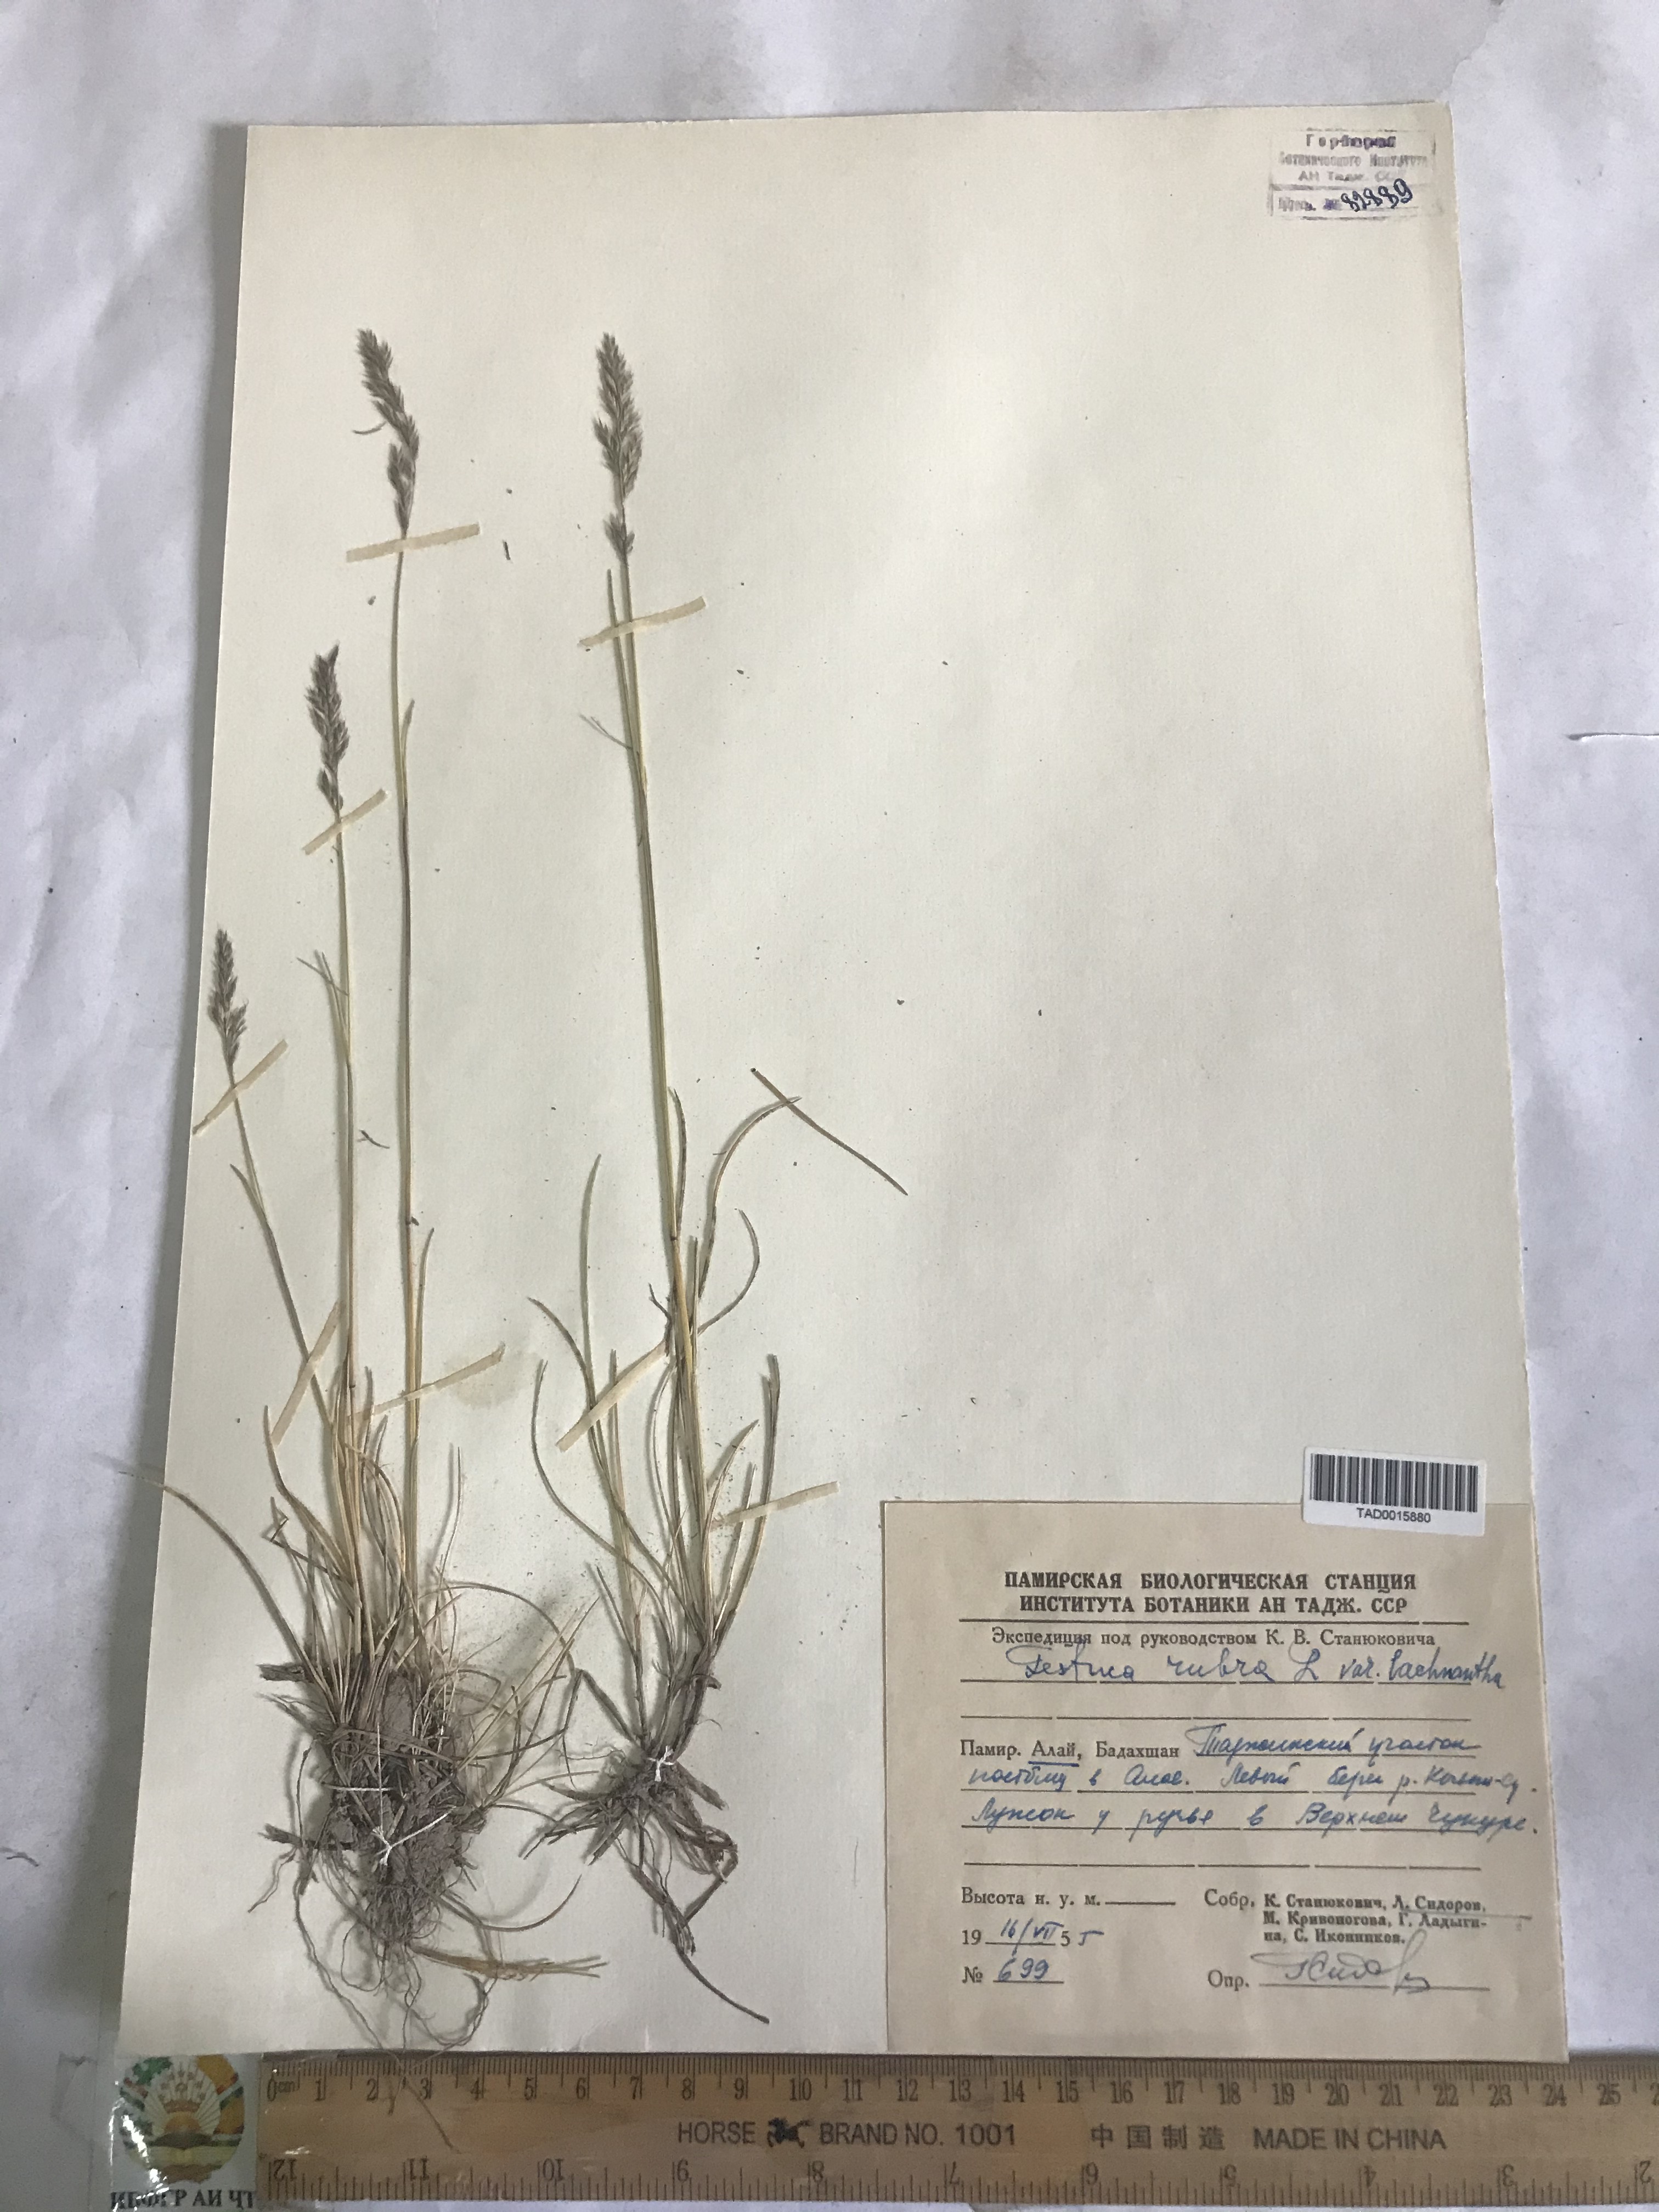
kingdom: Plantae
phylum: Tracheophyta
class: Liliopsida
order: Poales
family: Poaceae
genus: Festuca
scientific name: Festuca rubra
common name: Red fescue
